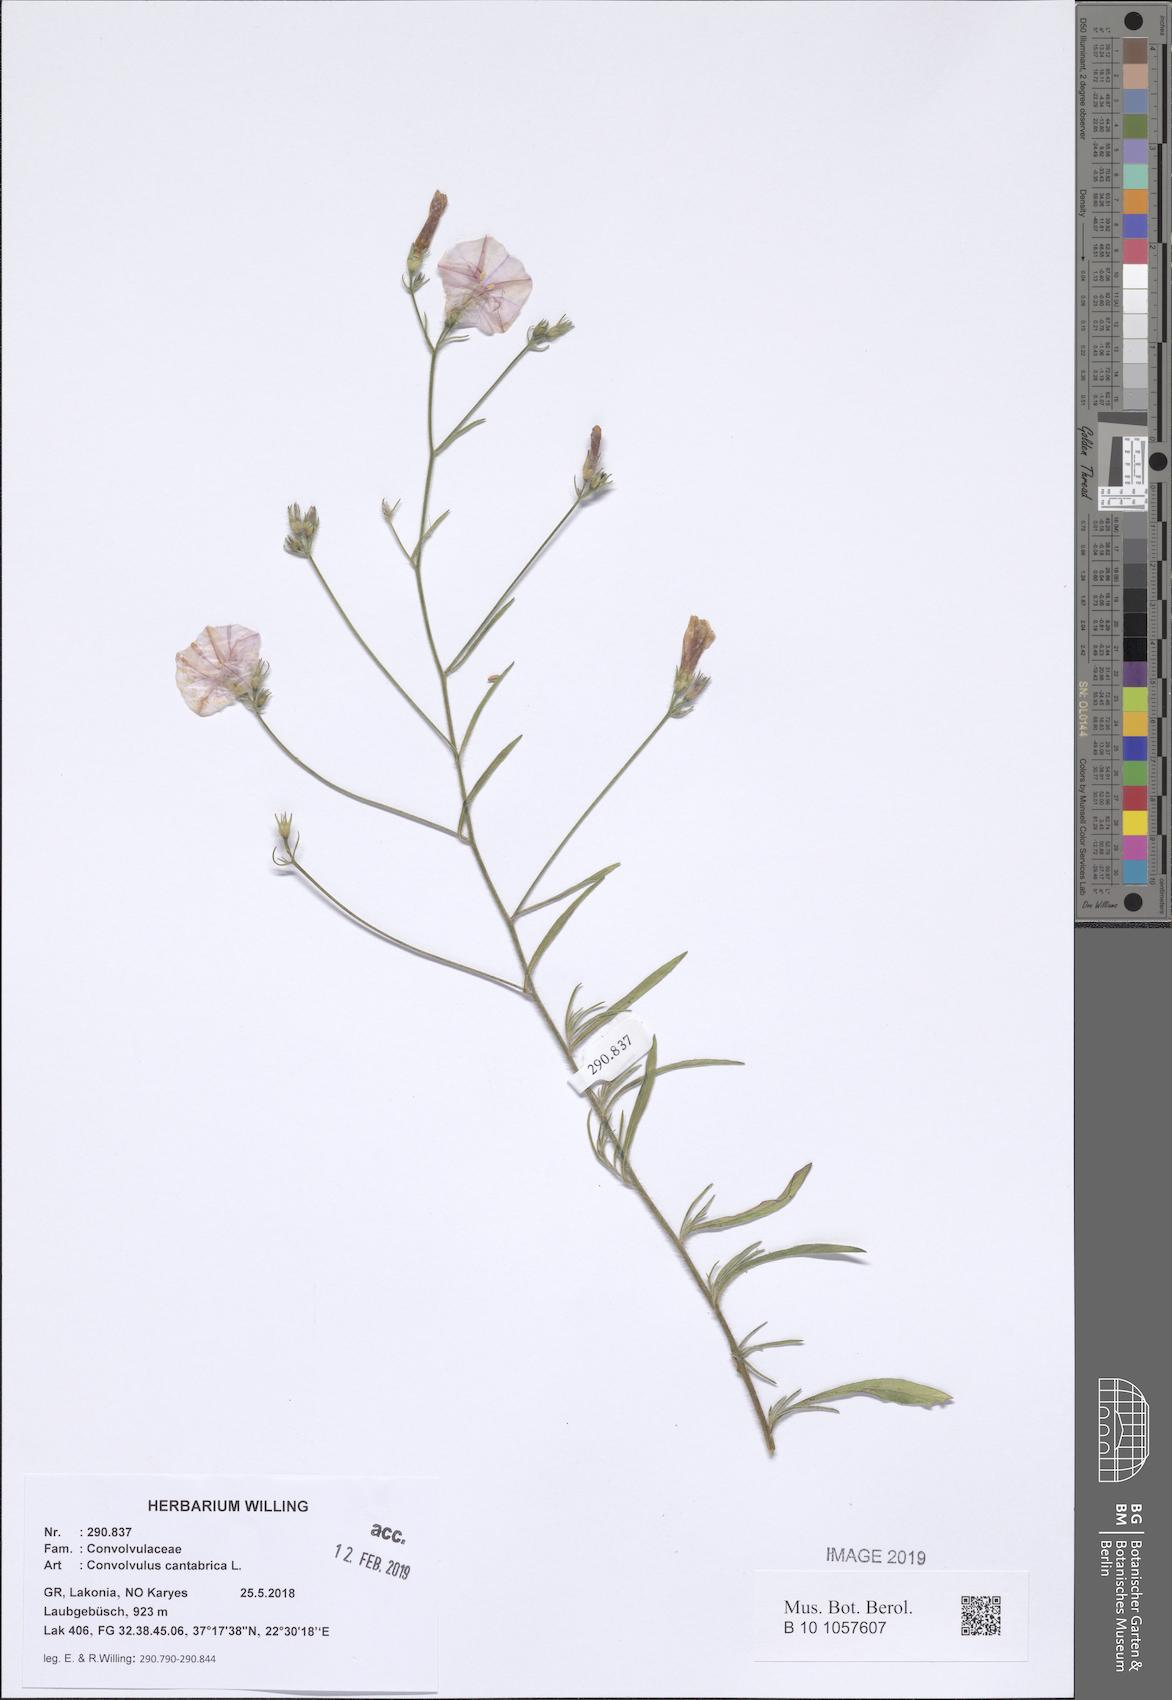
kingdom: Plantae
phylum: Tracheophyta
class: Magnoliopsida
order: Solanales
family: Convolvulaceae
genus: Convolvulus
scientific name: Convolvulus cantabrica
